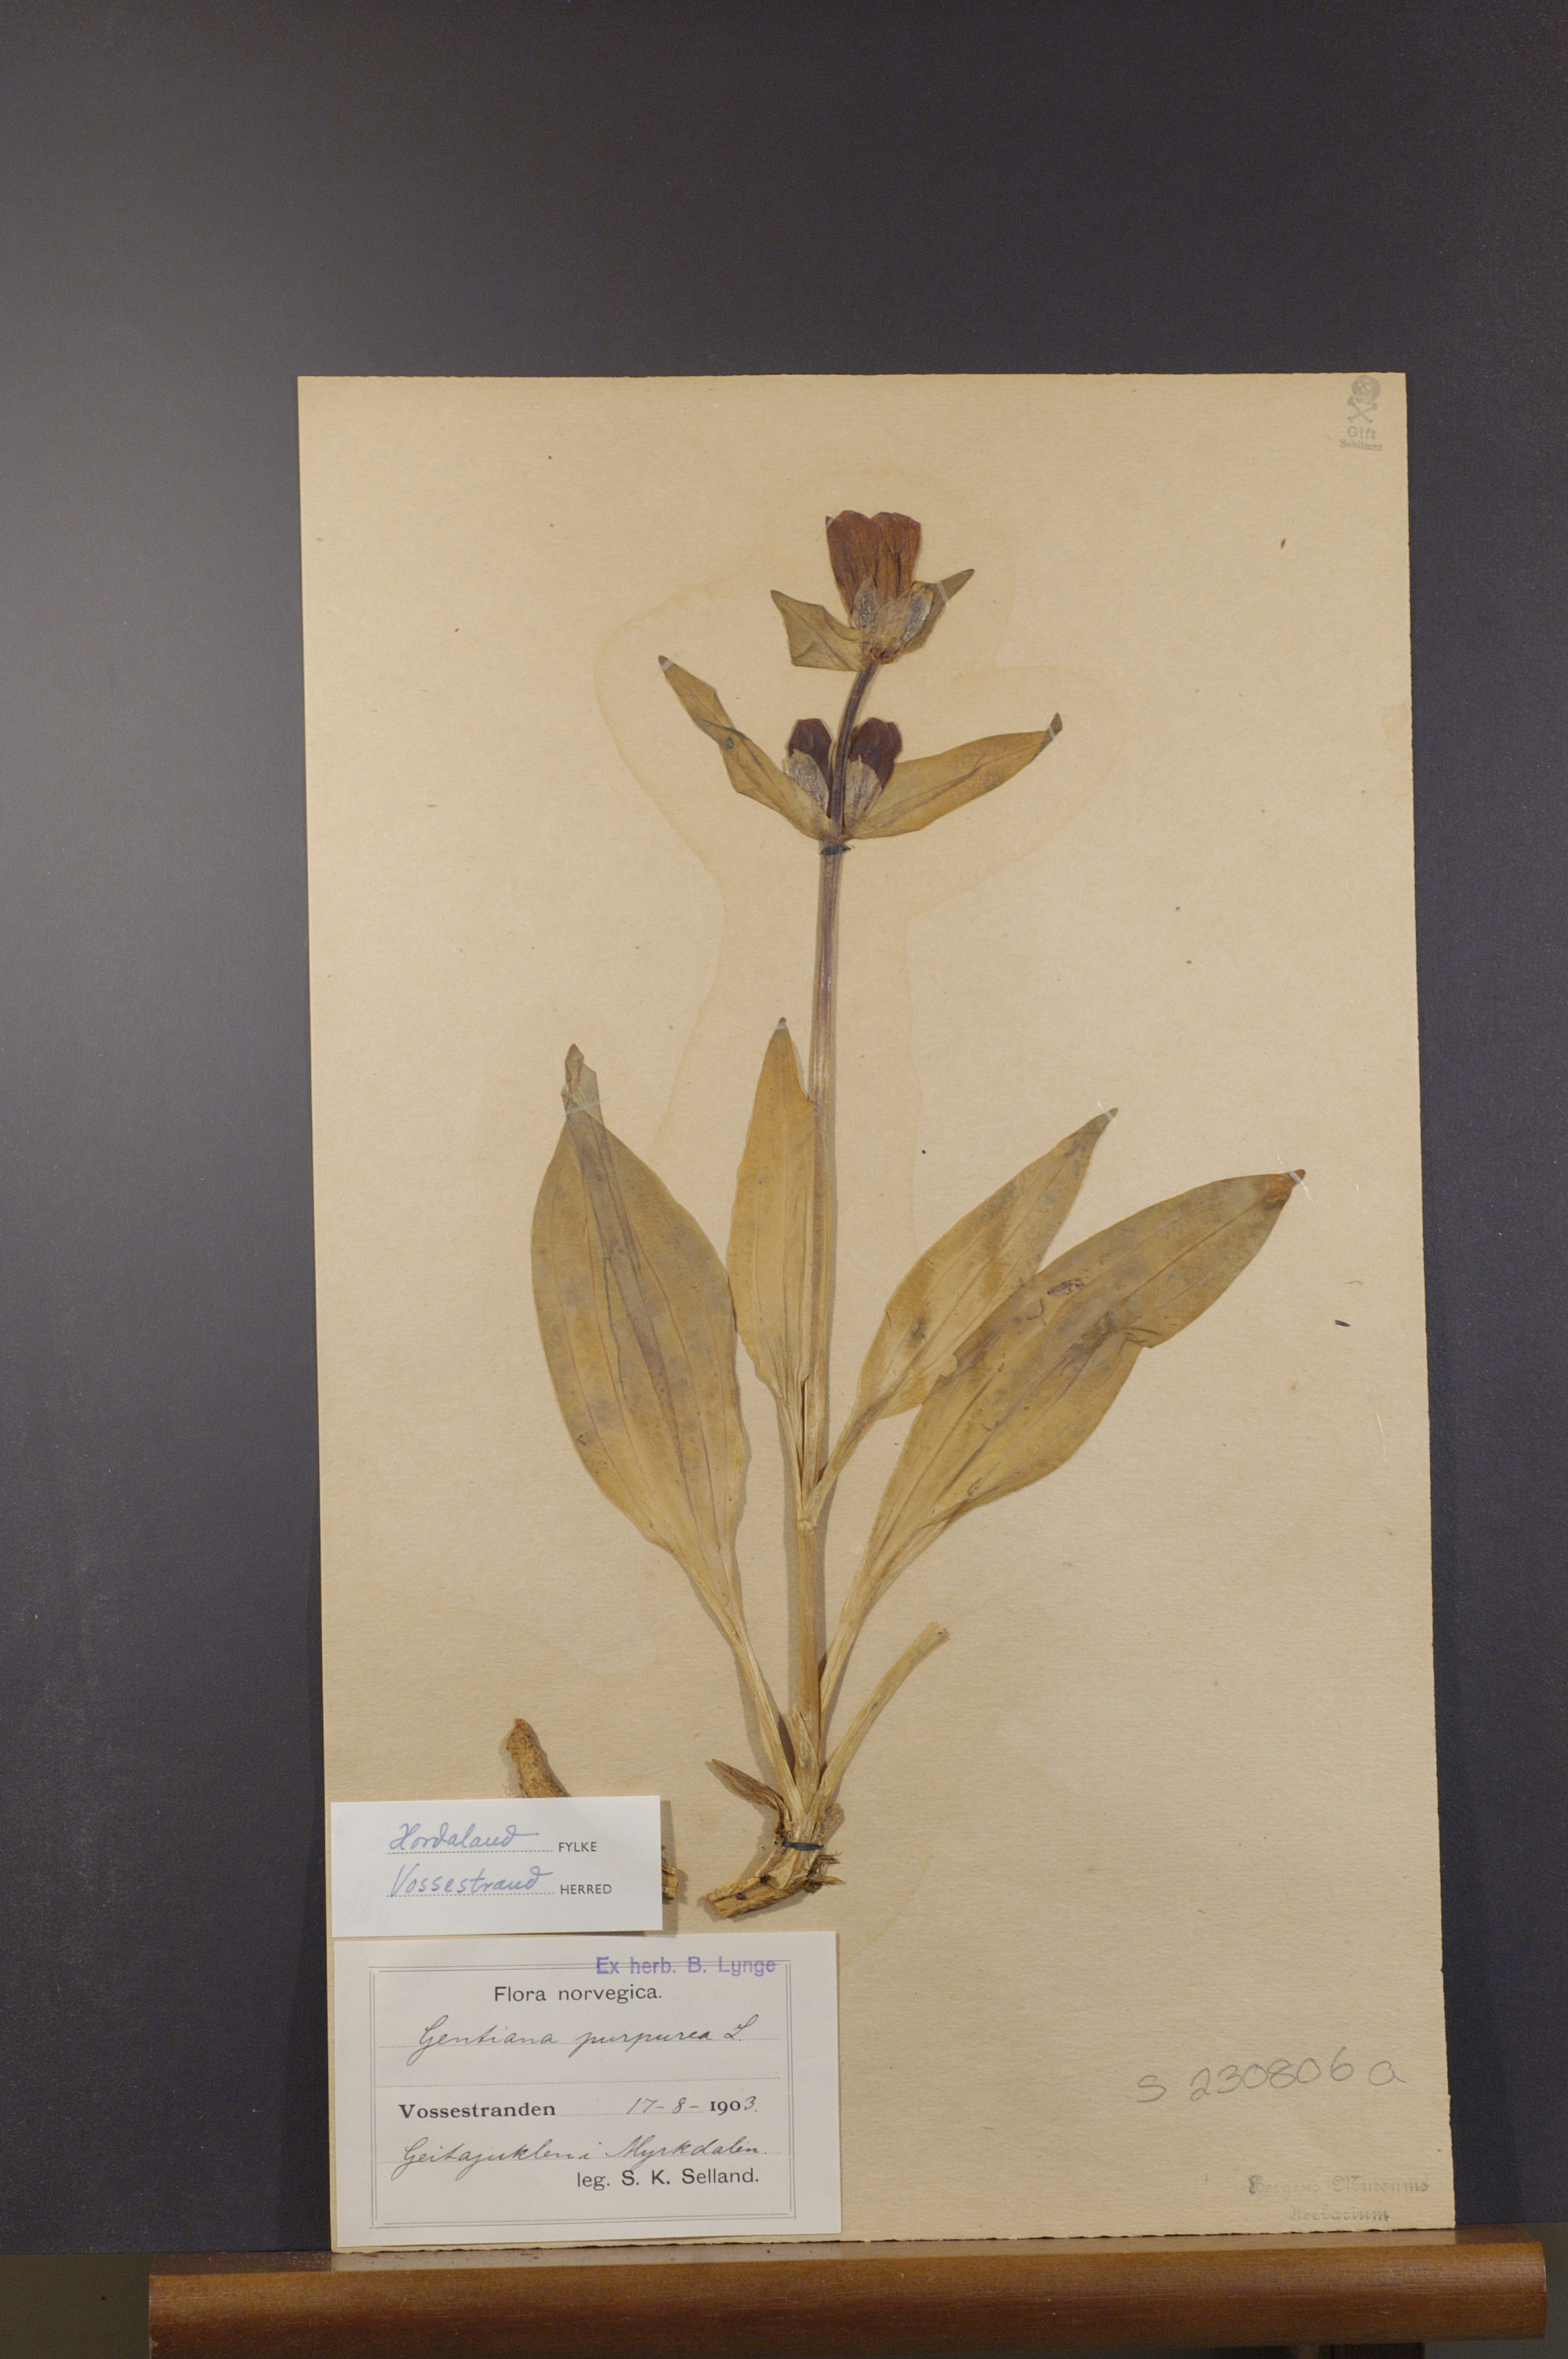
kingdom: Plantae
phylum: Tracheophyta
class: Magnoliopsida
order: Gentianales
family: Gentianaceae
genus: Gentiana
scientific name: Gentiana purpurea
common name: Purple gentian
